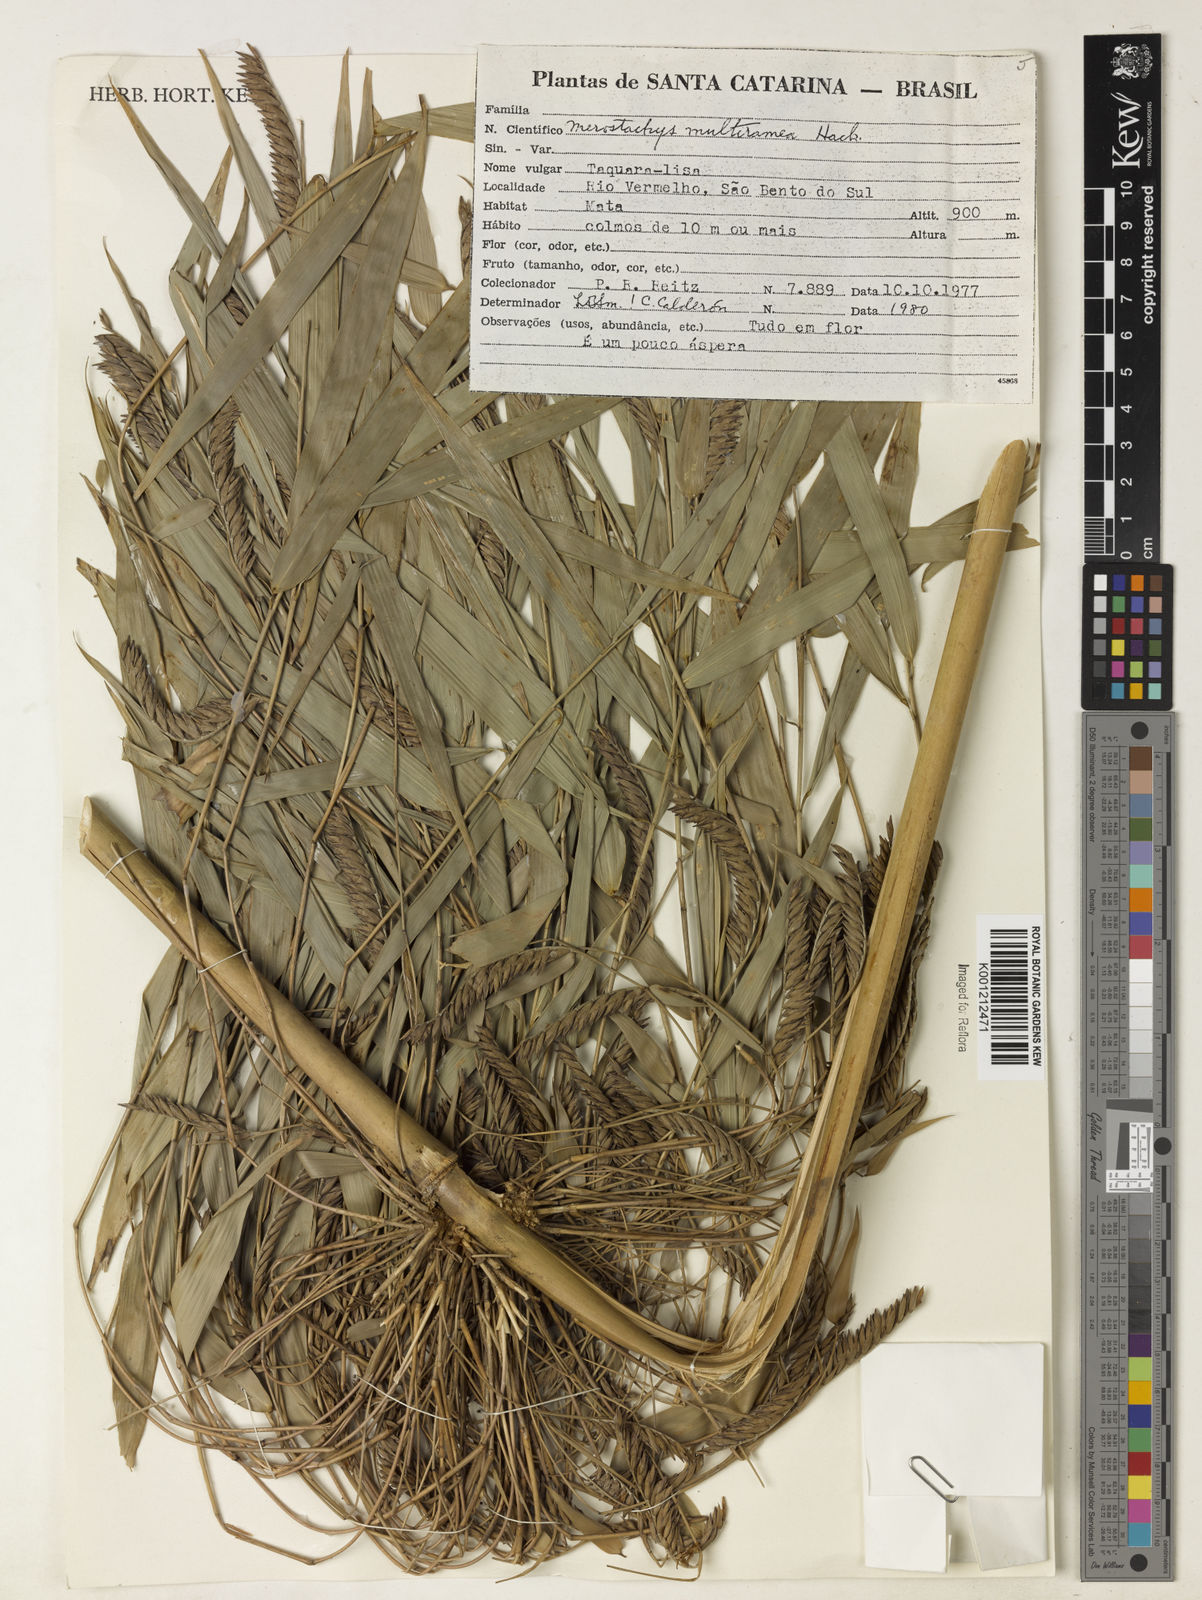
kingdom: Plantae
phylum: Tracheophyta
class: Liliopsida
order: Poales
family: Poaceae
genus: Merostachys
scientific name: Merostachys multiramea
